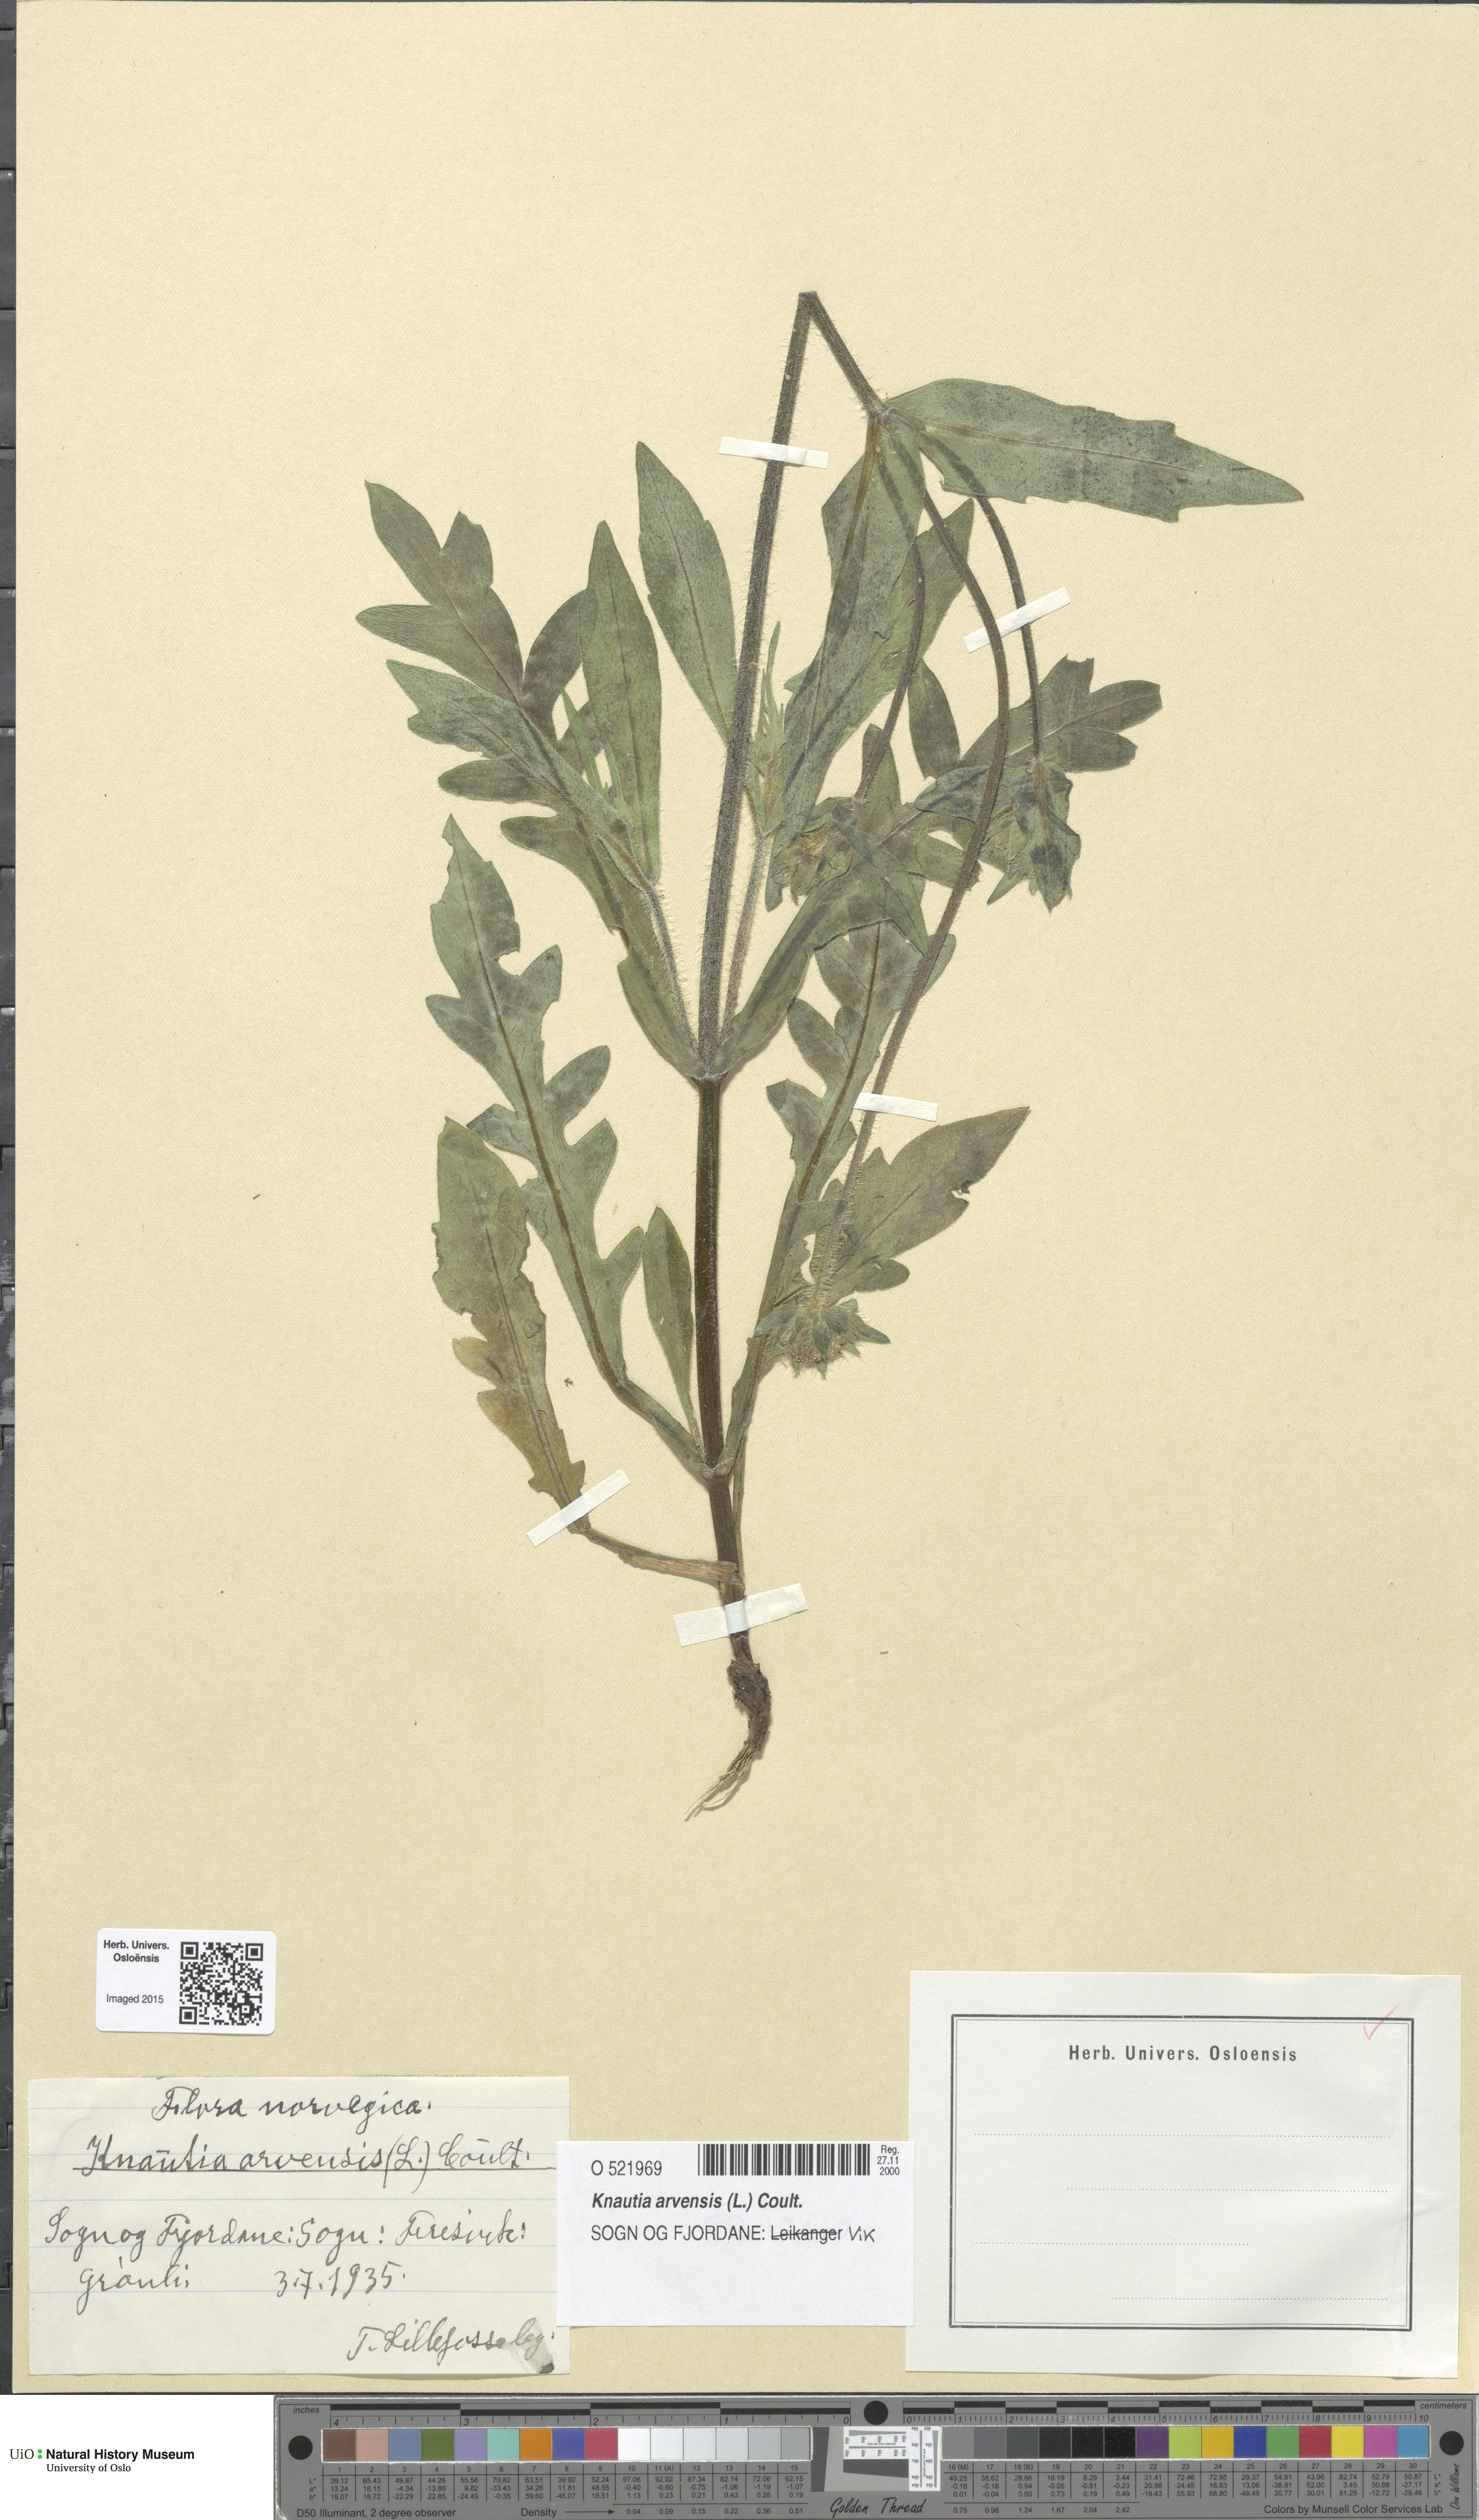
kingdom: Plantae
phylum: Tracheophyta
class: Magnoliopsida
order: Dipsacales
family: Caprifoliaceae
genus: Knautia
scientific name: Knautia arvensis
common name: Field scabiosa
